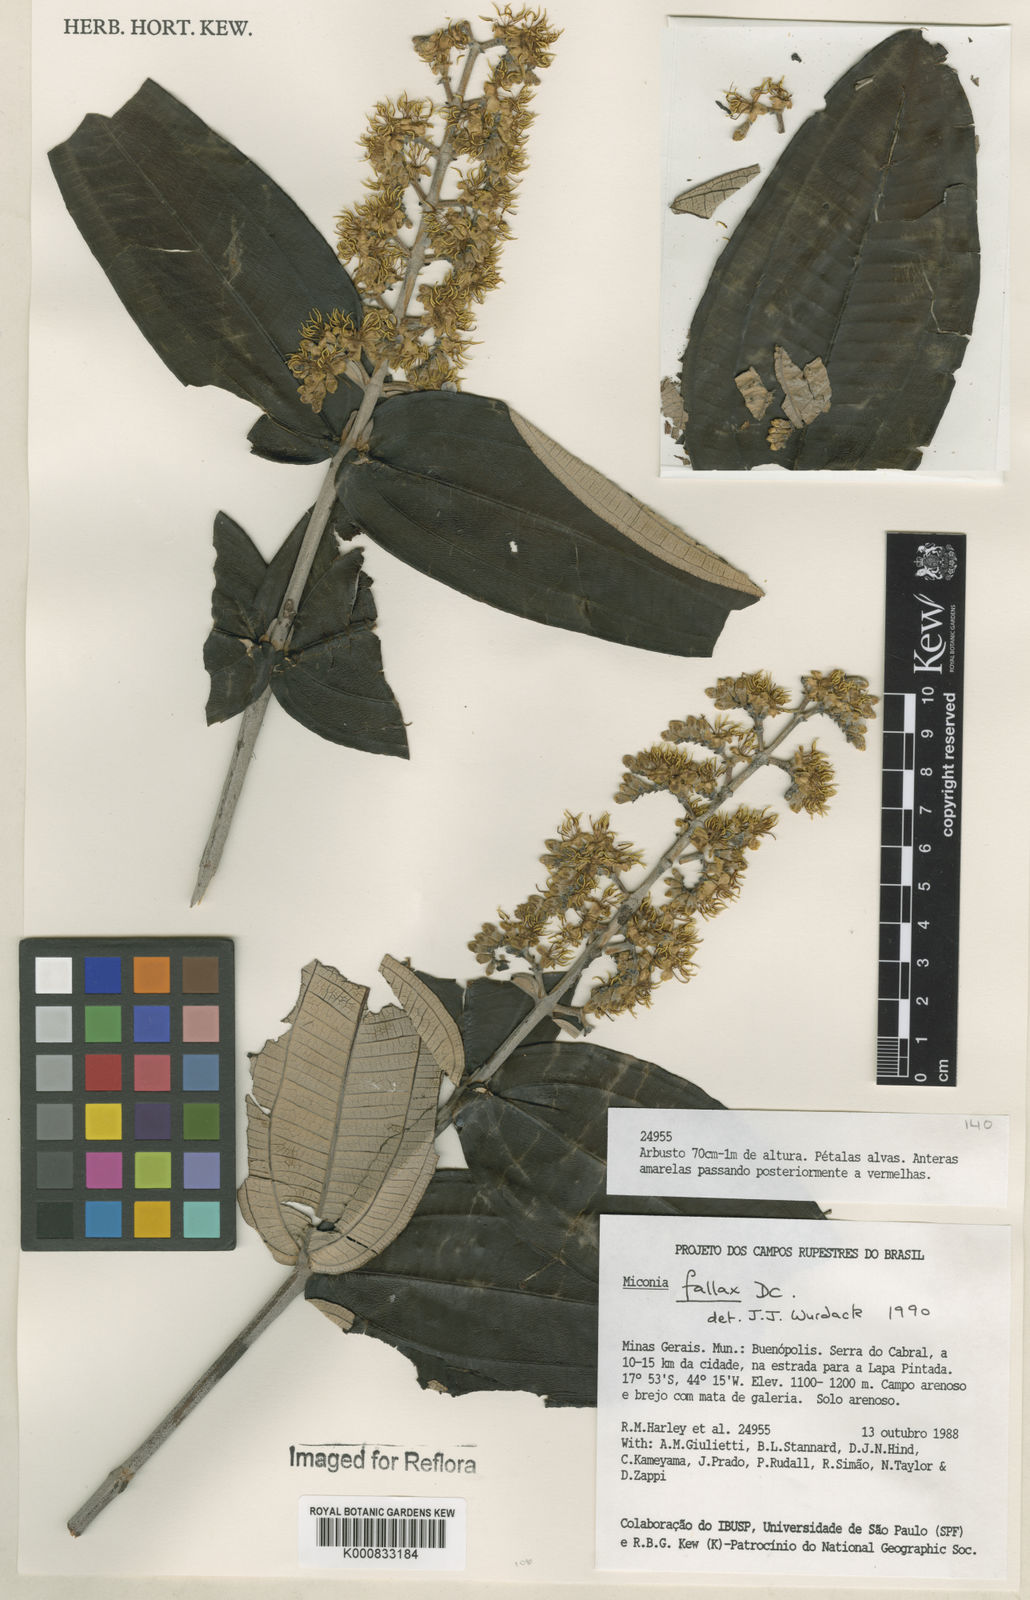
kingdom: Plantae
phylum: Tracheophyta
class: Magnoliopsida
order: Myrtales
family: Melastomataceae
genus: Miconia
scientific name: Miconia fallax
